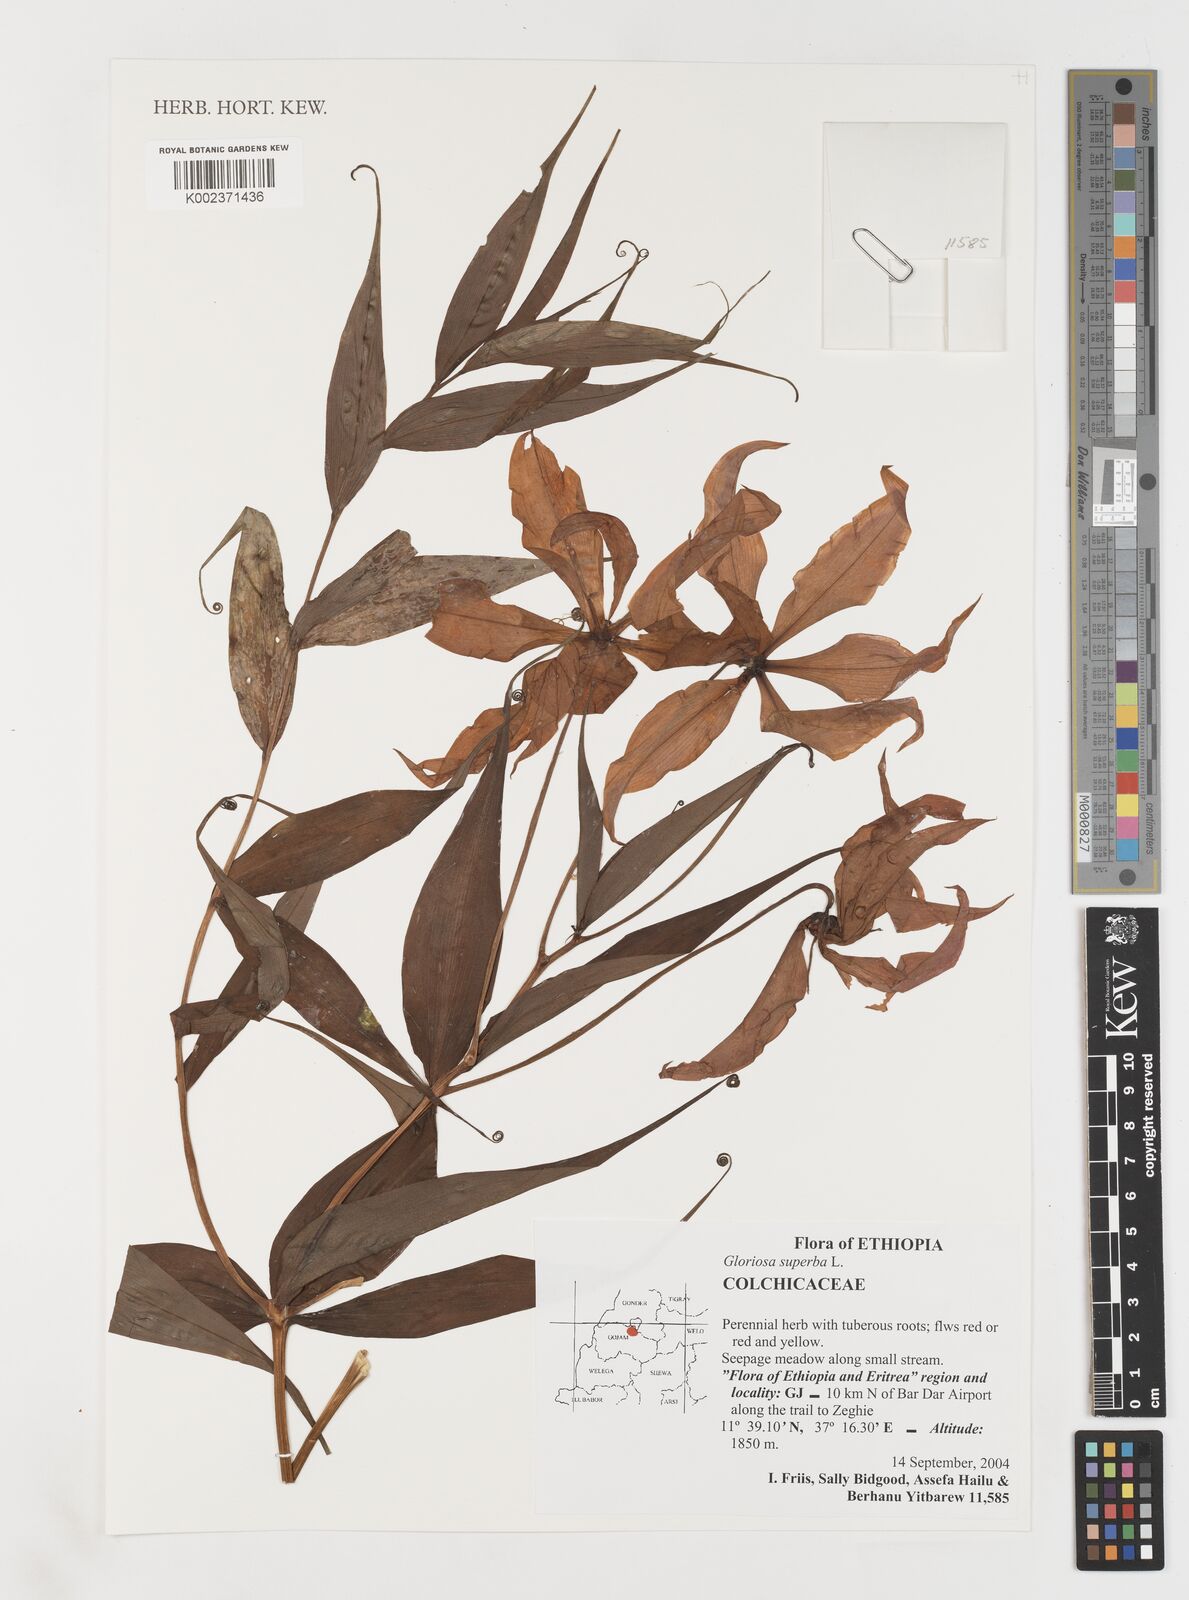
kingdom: Plantae
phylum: Tracheophyta
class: Liliopsida
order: Liliales
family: Colchicaceae
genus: Gloriosa
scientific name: Gloriosa simplex
